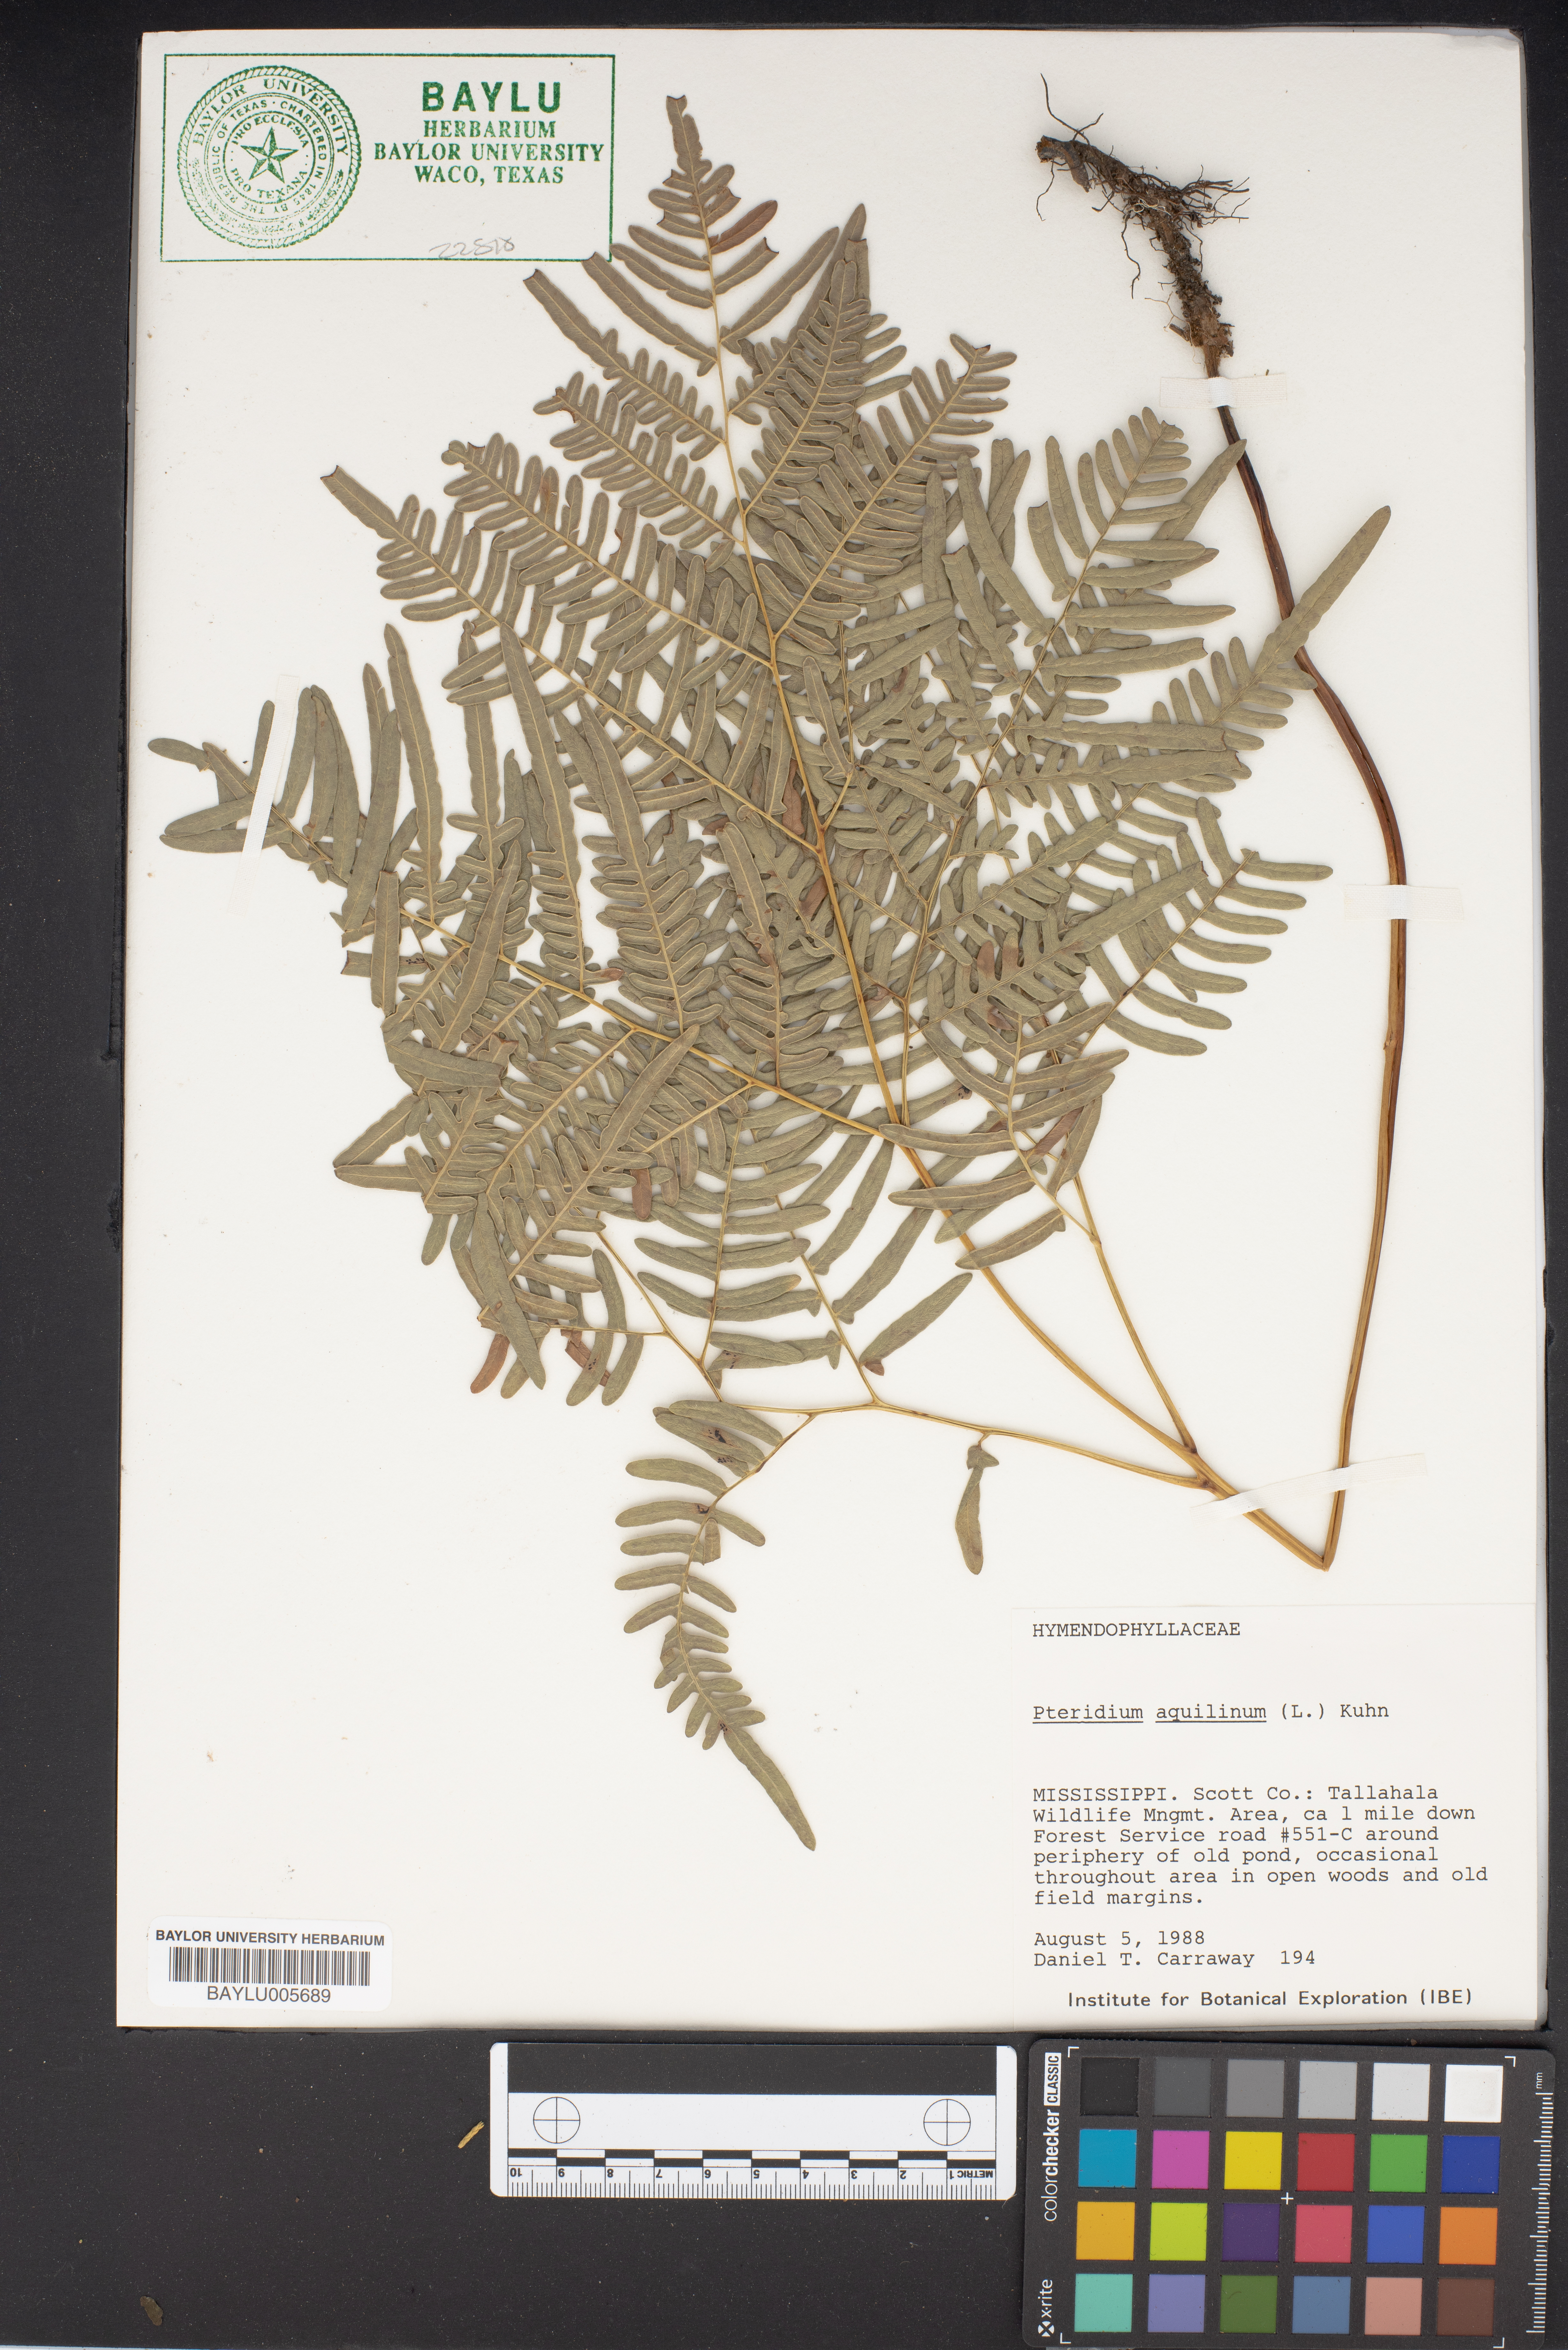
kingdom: Plantae
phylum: Tracheophyta
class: Polypodiopsida
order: Polypodiales
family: Dennstaedtiaceae
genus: Pteridium
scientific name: Pteridium aquilinum
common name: Bracken
